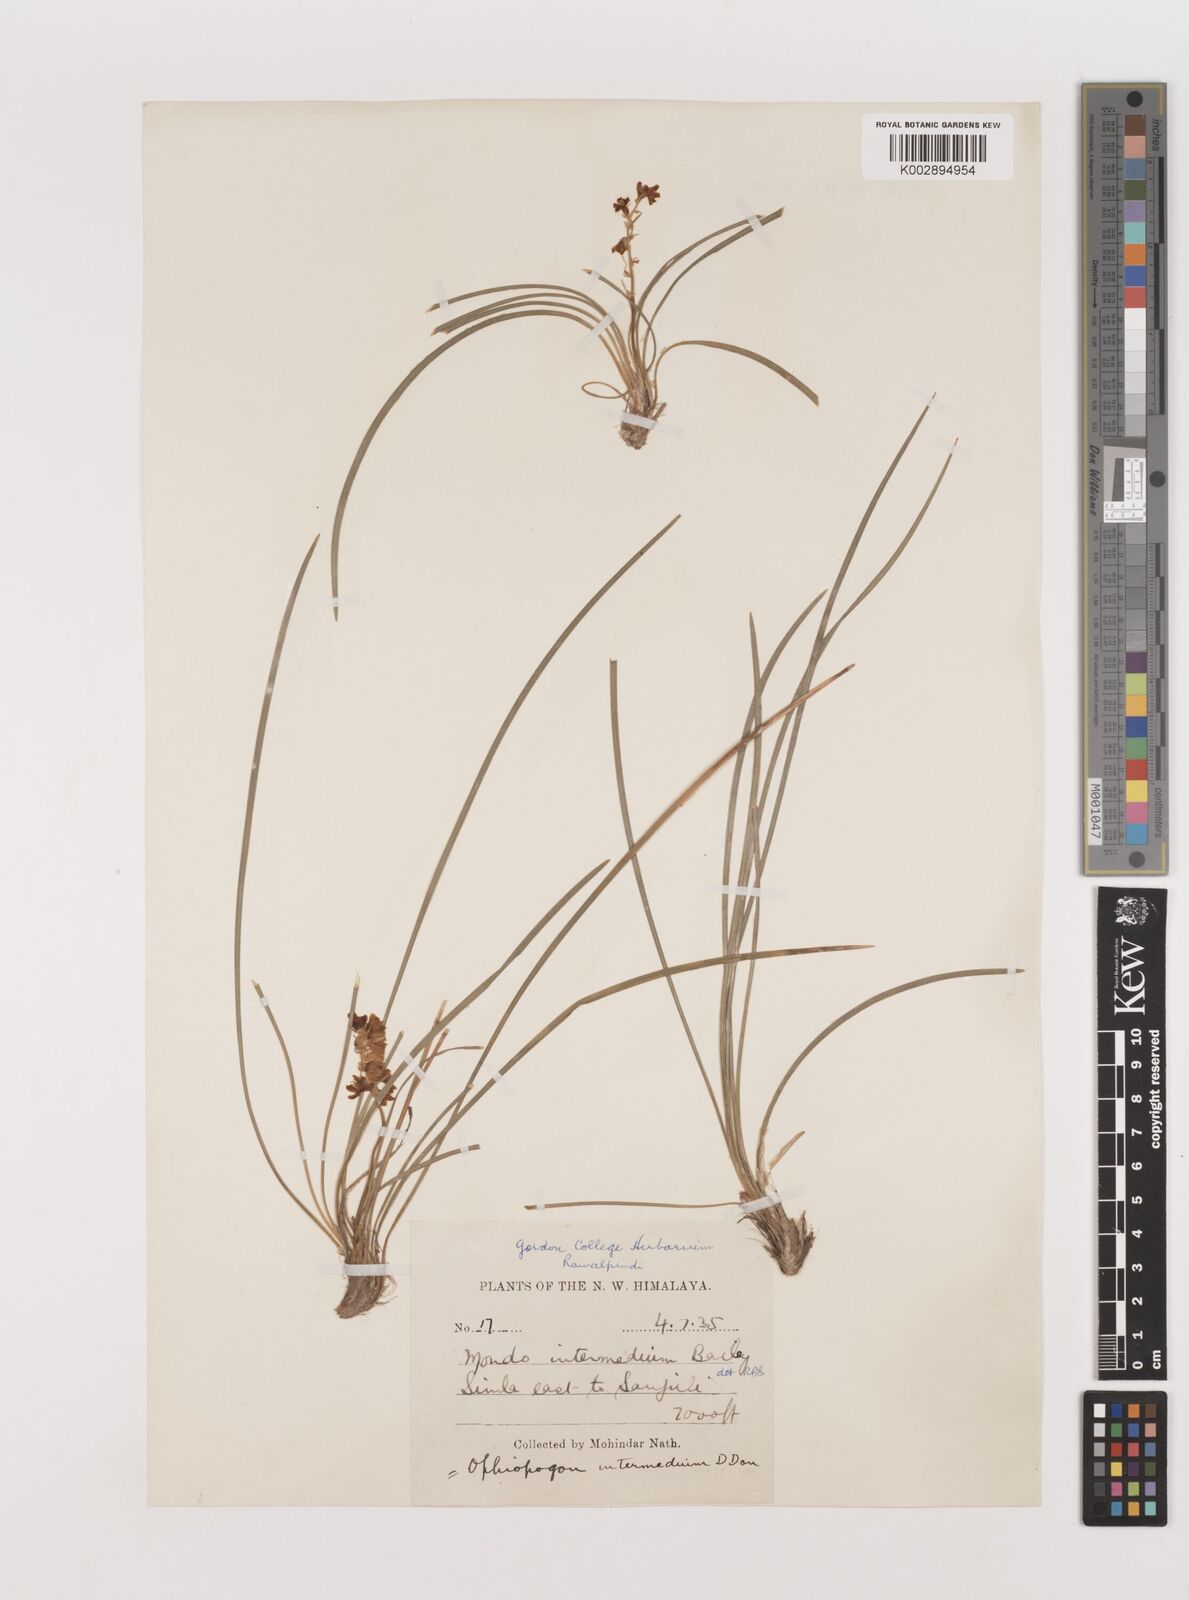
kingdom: Plantae
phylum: Tracheophyta
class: Liliopsida
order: Asparagales
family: Asparagaceae
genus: Ophiopogon
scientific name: Ophiopogon intermedius
